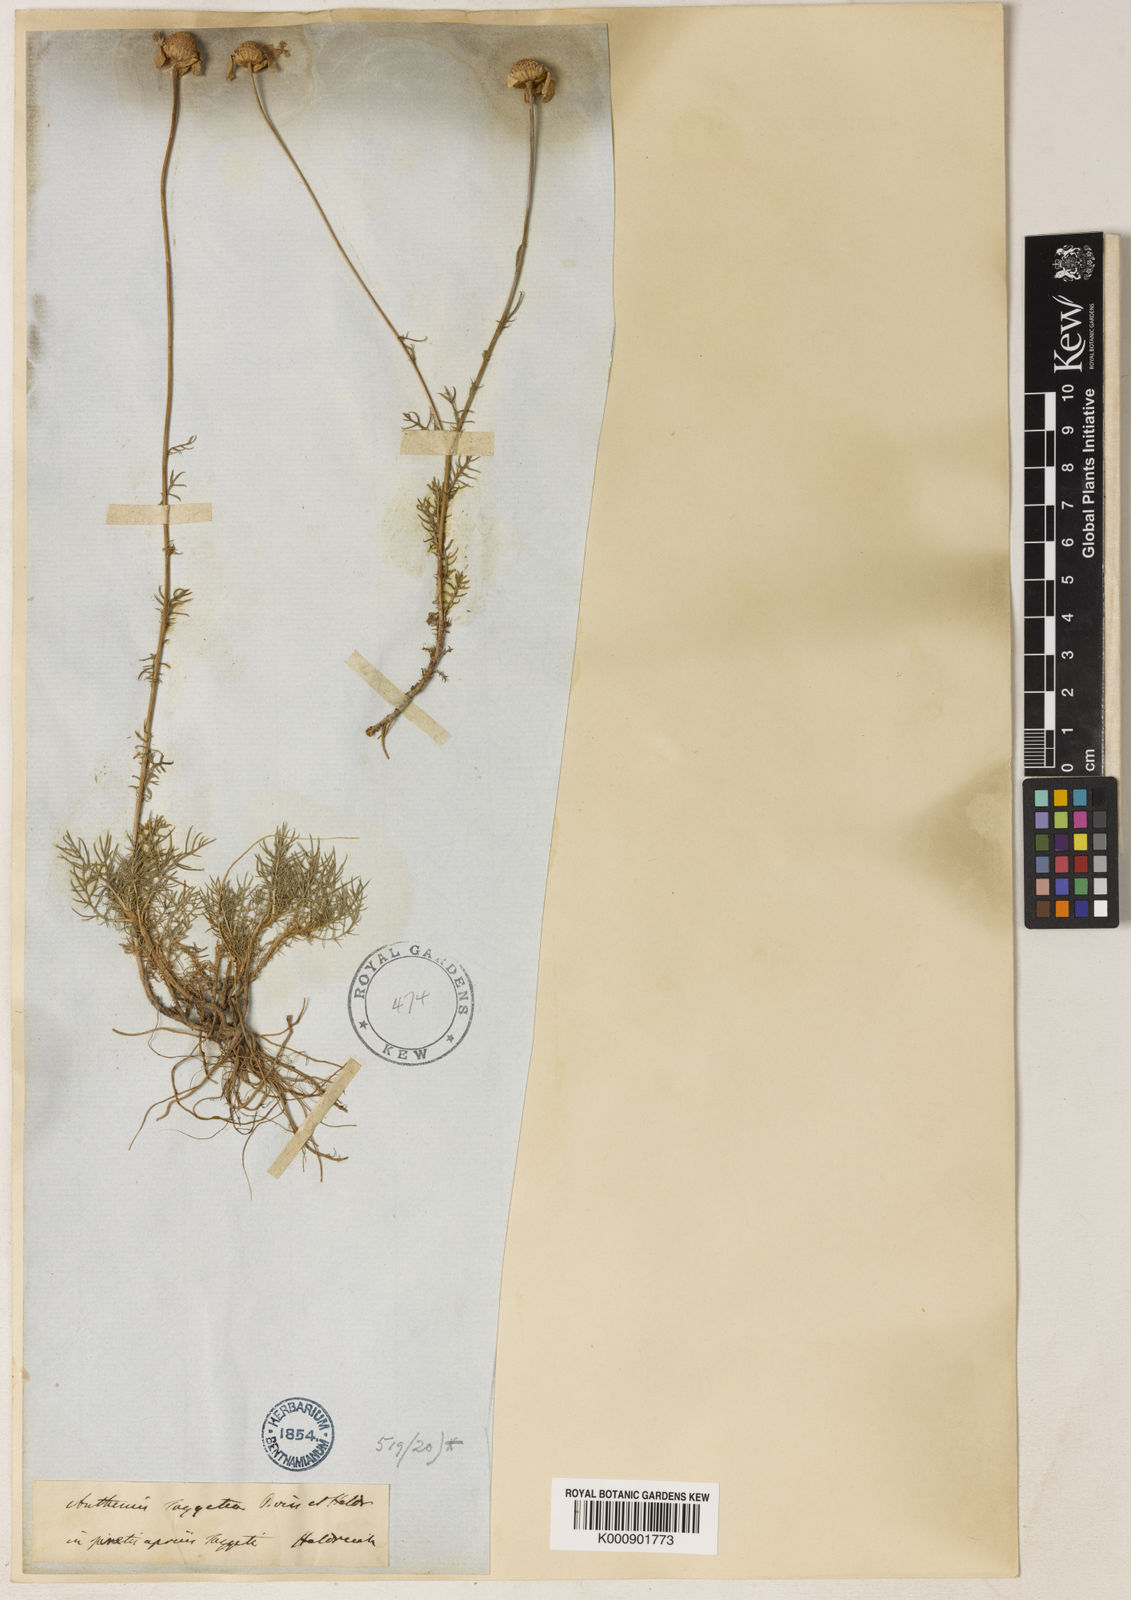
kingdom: Plantae
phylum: Tracheophyta
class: Magnoliopsida
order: Asterales
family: Asteraceae
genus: Anthemis
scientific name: Anthemis orientalis
